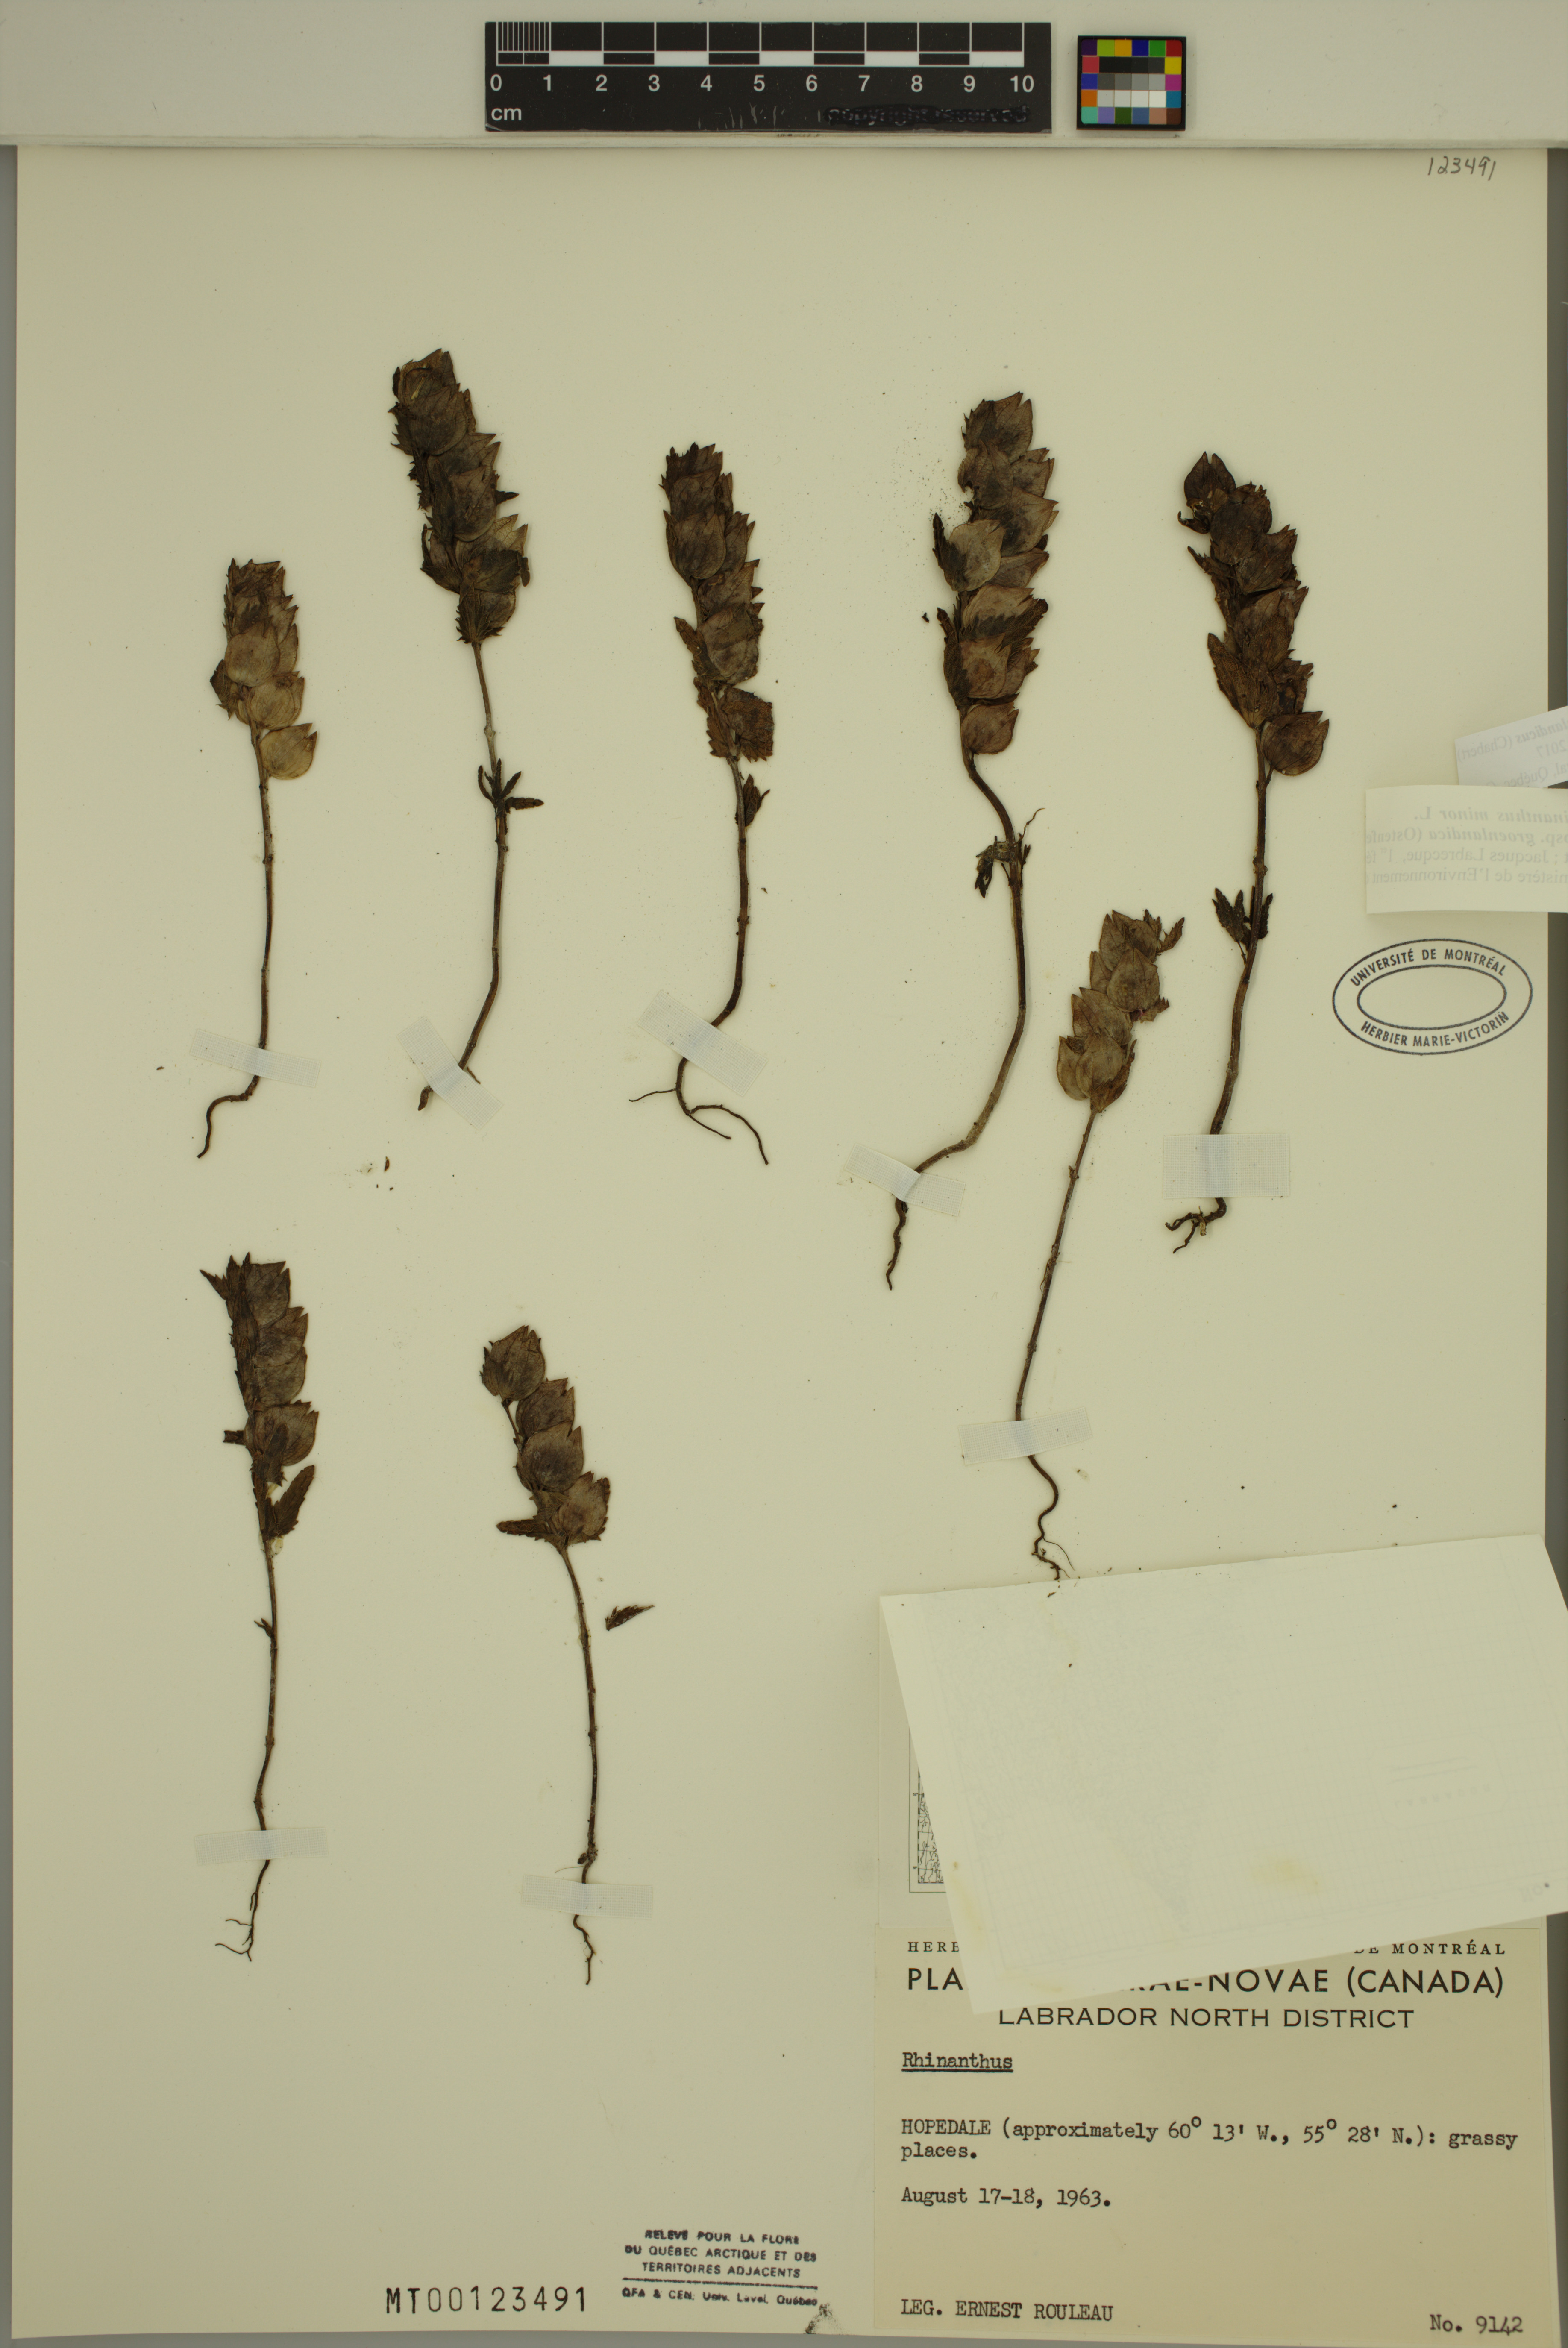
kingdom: Plantae
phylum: Tracheophyta
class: Magnoliopsida
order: Lamiales
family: Orobanchaceae
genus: Rhinanthus
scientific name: Rhinanthus groenlandicus
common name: Little yellow rattle
